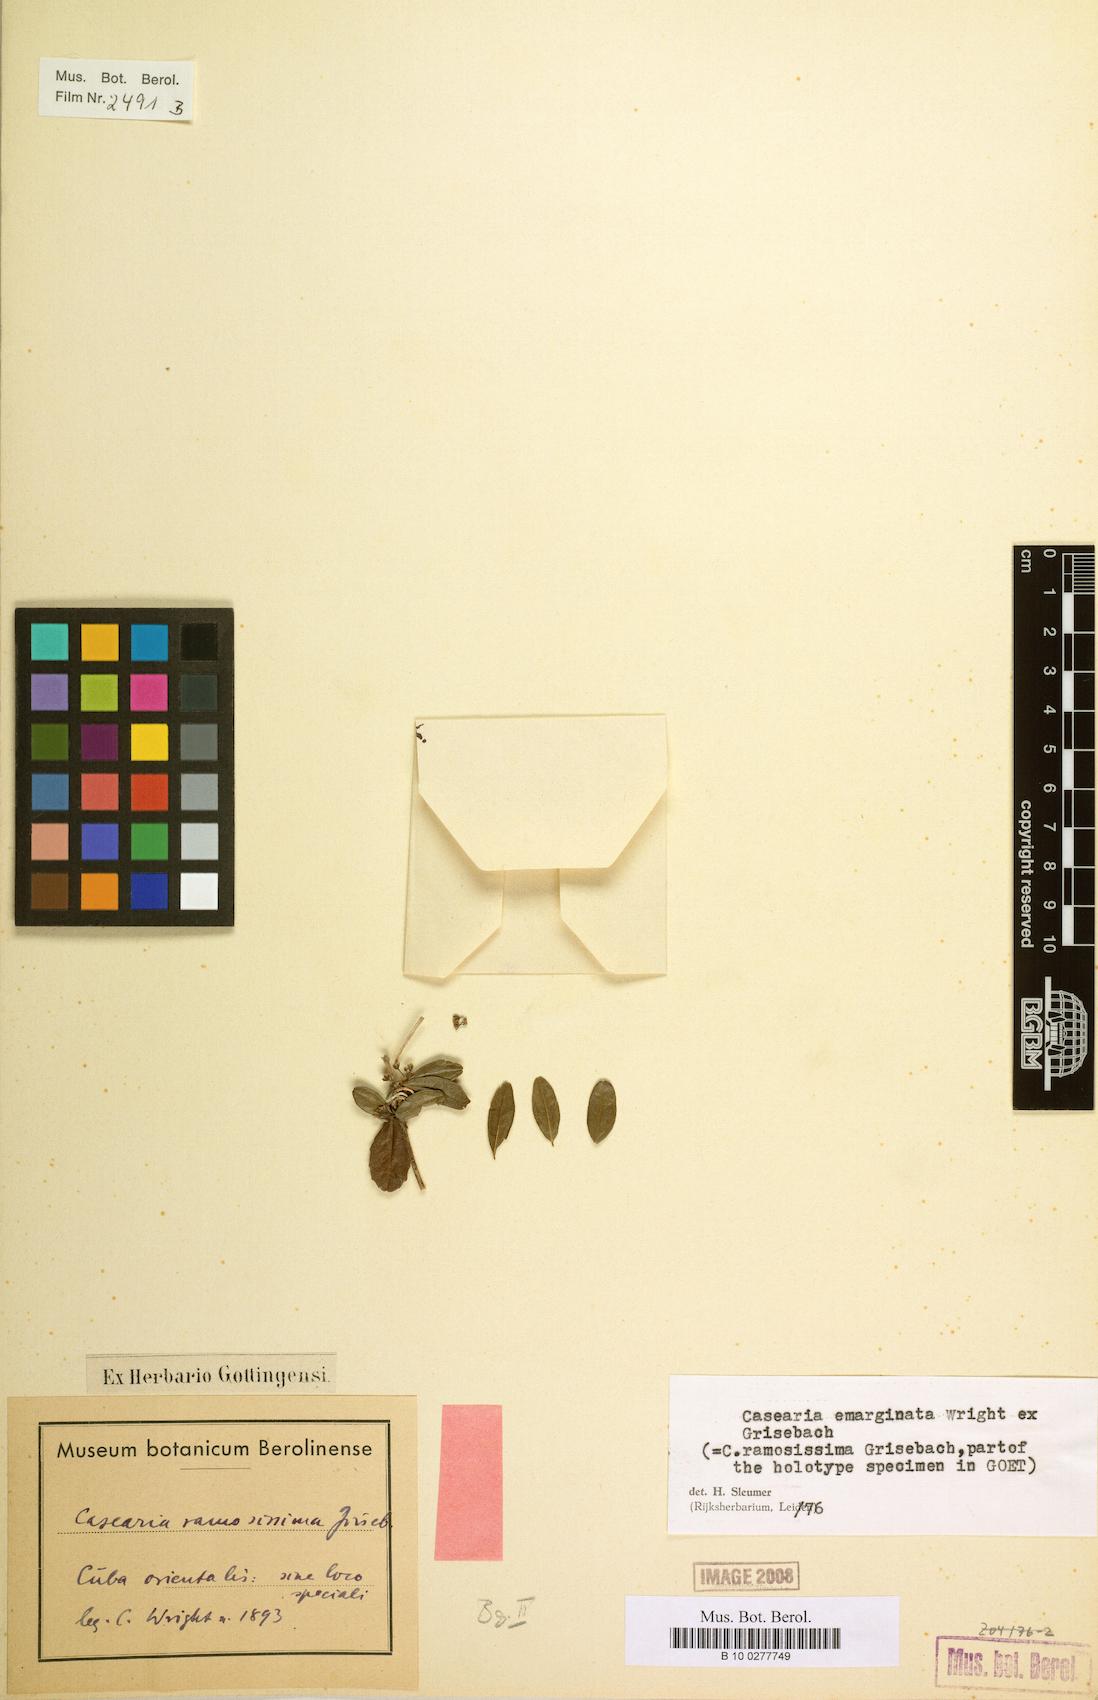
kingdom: Plantae
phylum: Tracheophyta
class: Magnoliopsida
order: Malpighiales
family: Salicaceae
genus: Casearia
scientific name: Casearia emarginata
